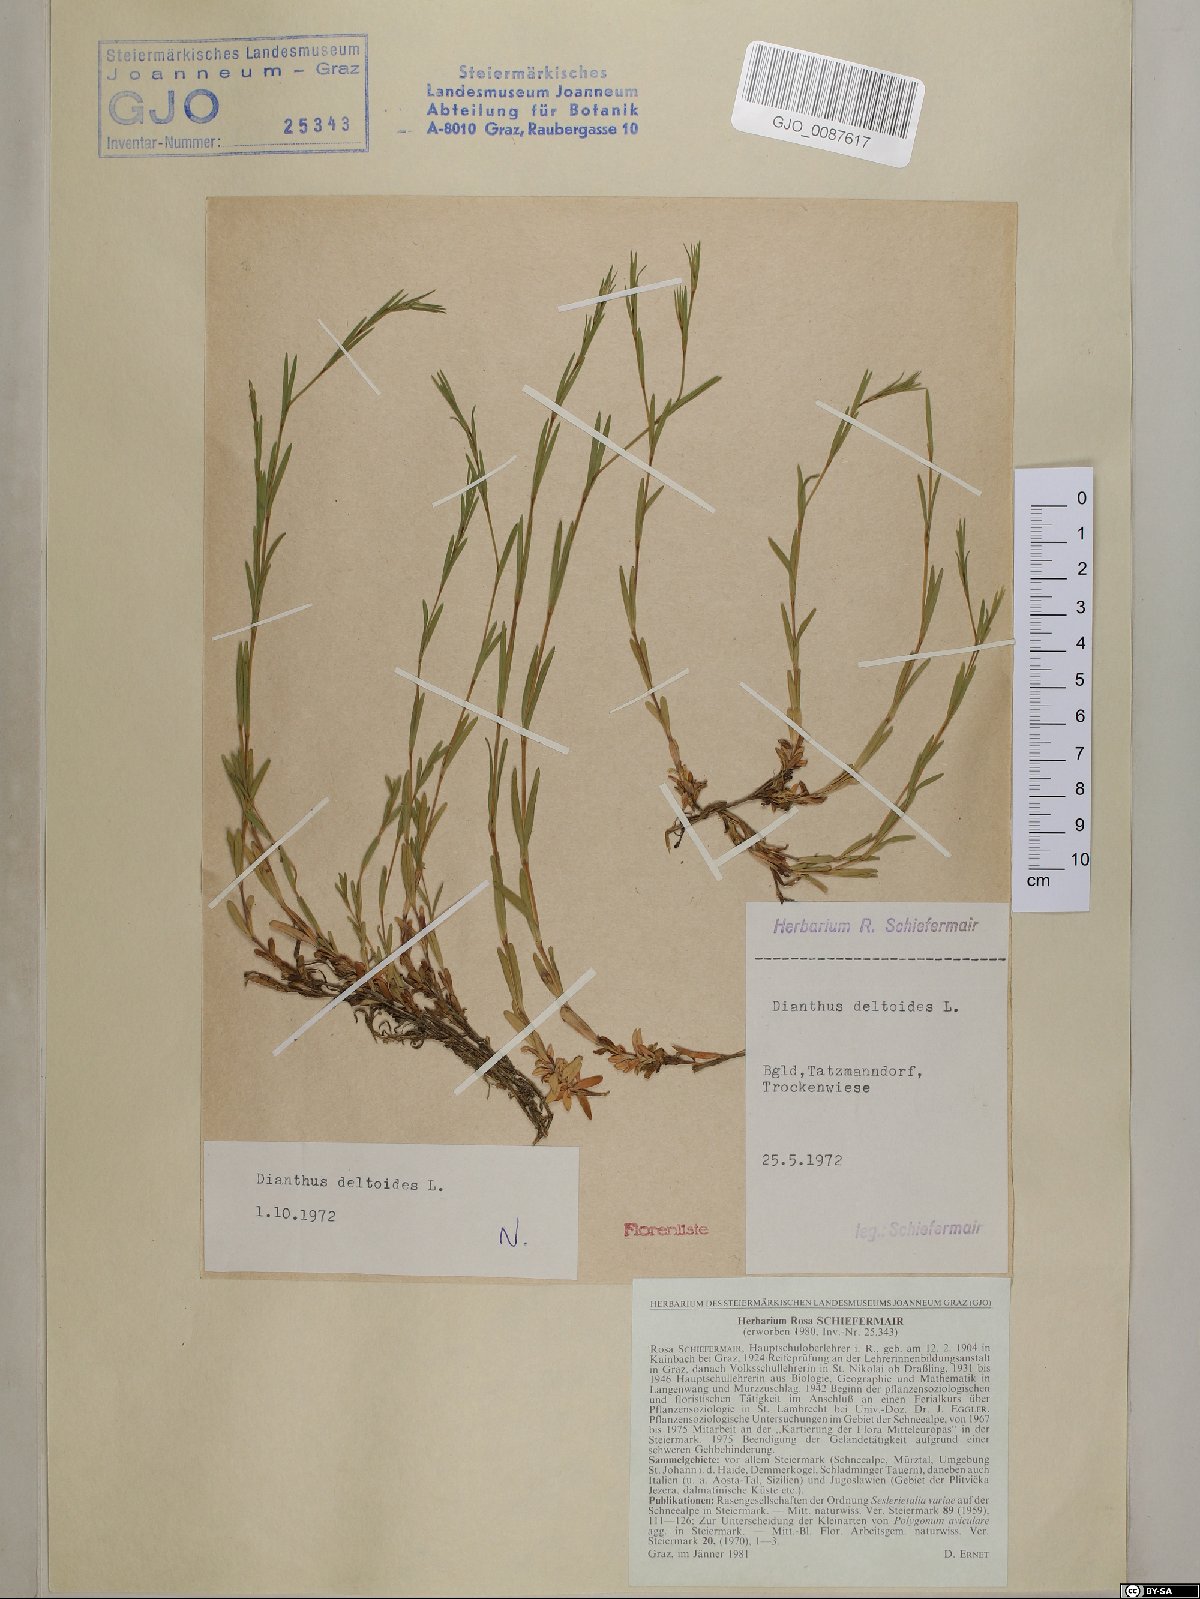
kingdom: Plantae
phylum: Tracheophyta
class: Magnoliopsida
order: Caryophyllales
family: Caryophyllaceae
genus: Dianthus
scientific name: Dianthus deltoides
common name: Maiden pink
